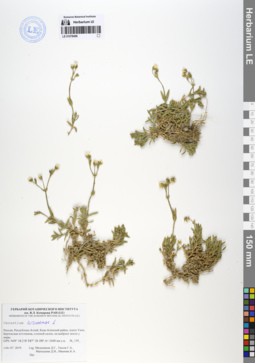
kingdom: Plantae
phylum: Tracheophyta
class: Magnoliopsida
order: Caryophyllales
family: Caryophyllaceae
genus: Cerastium
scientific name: Cerastium arvense
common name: Field mouse-ear
